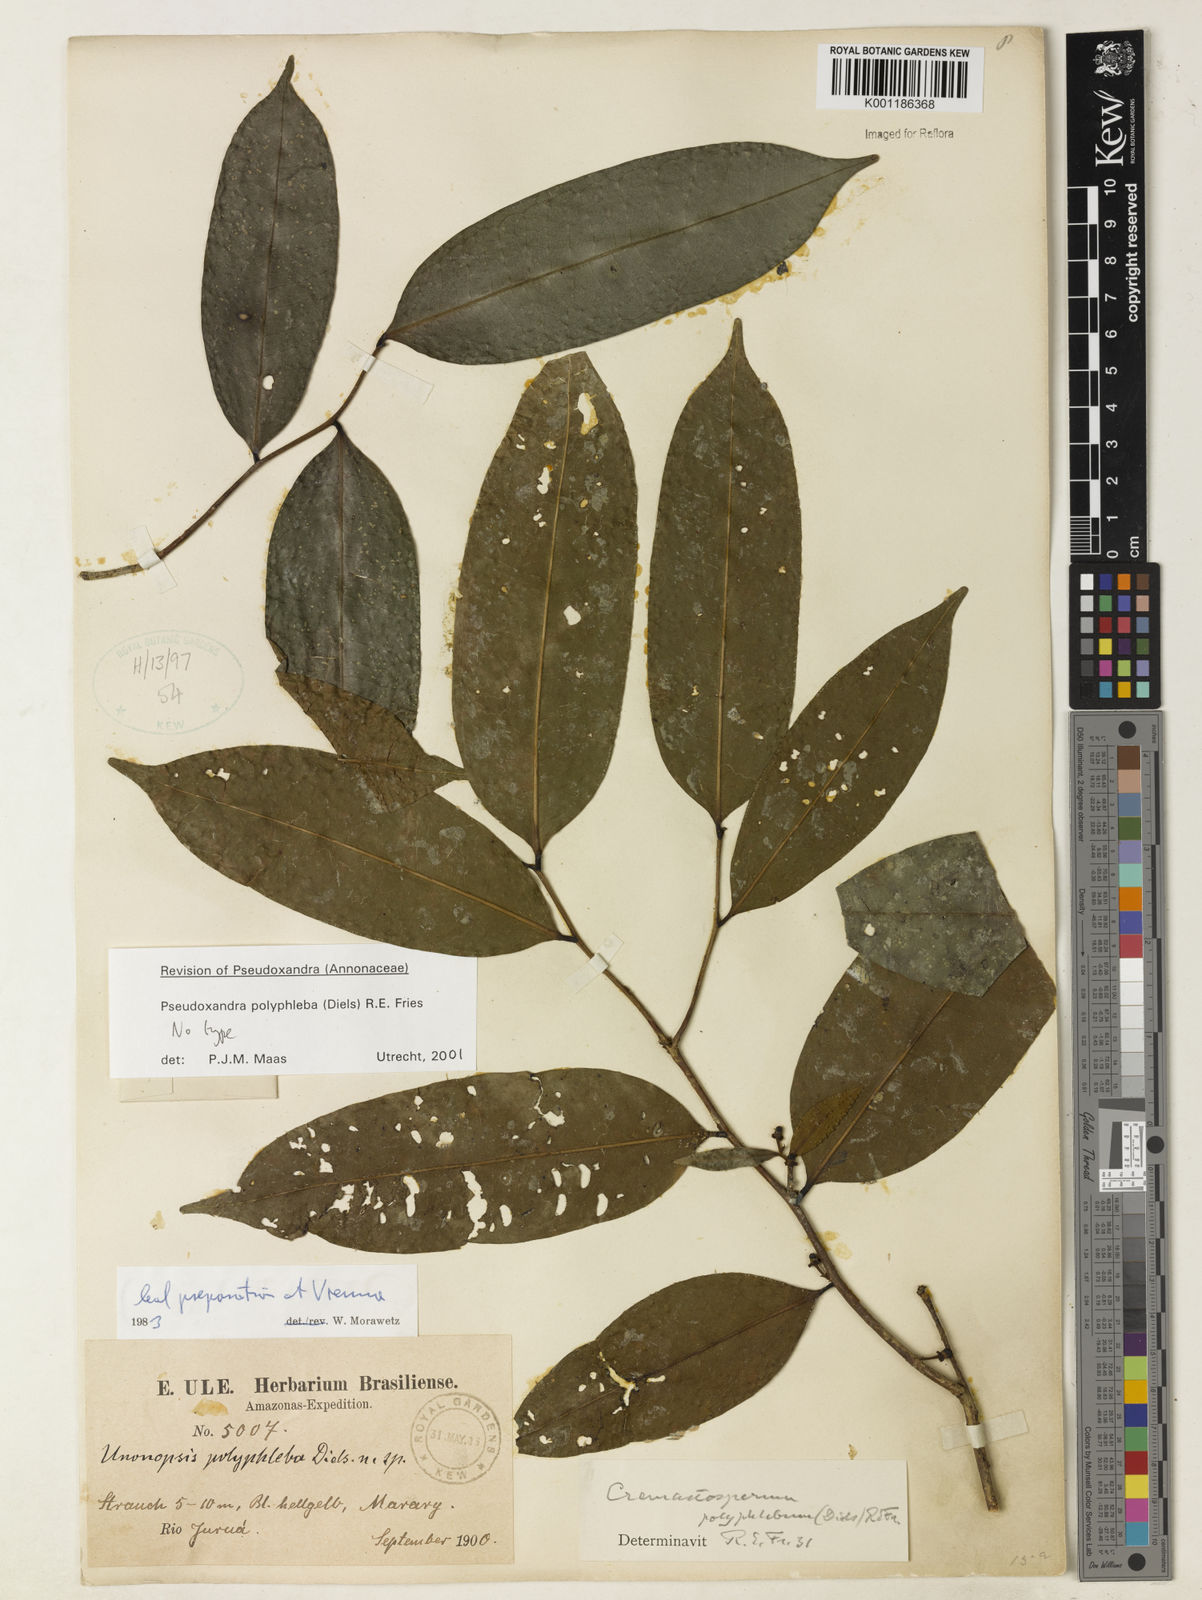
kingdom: Plantae
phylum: Tracheophyta
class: Magnoliopsida
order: Magnoliales
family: Annonaceae
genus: Pseudoxandra
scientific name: Pseudoxandra polyphleba
